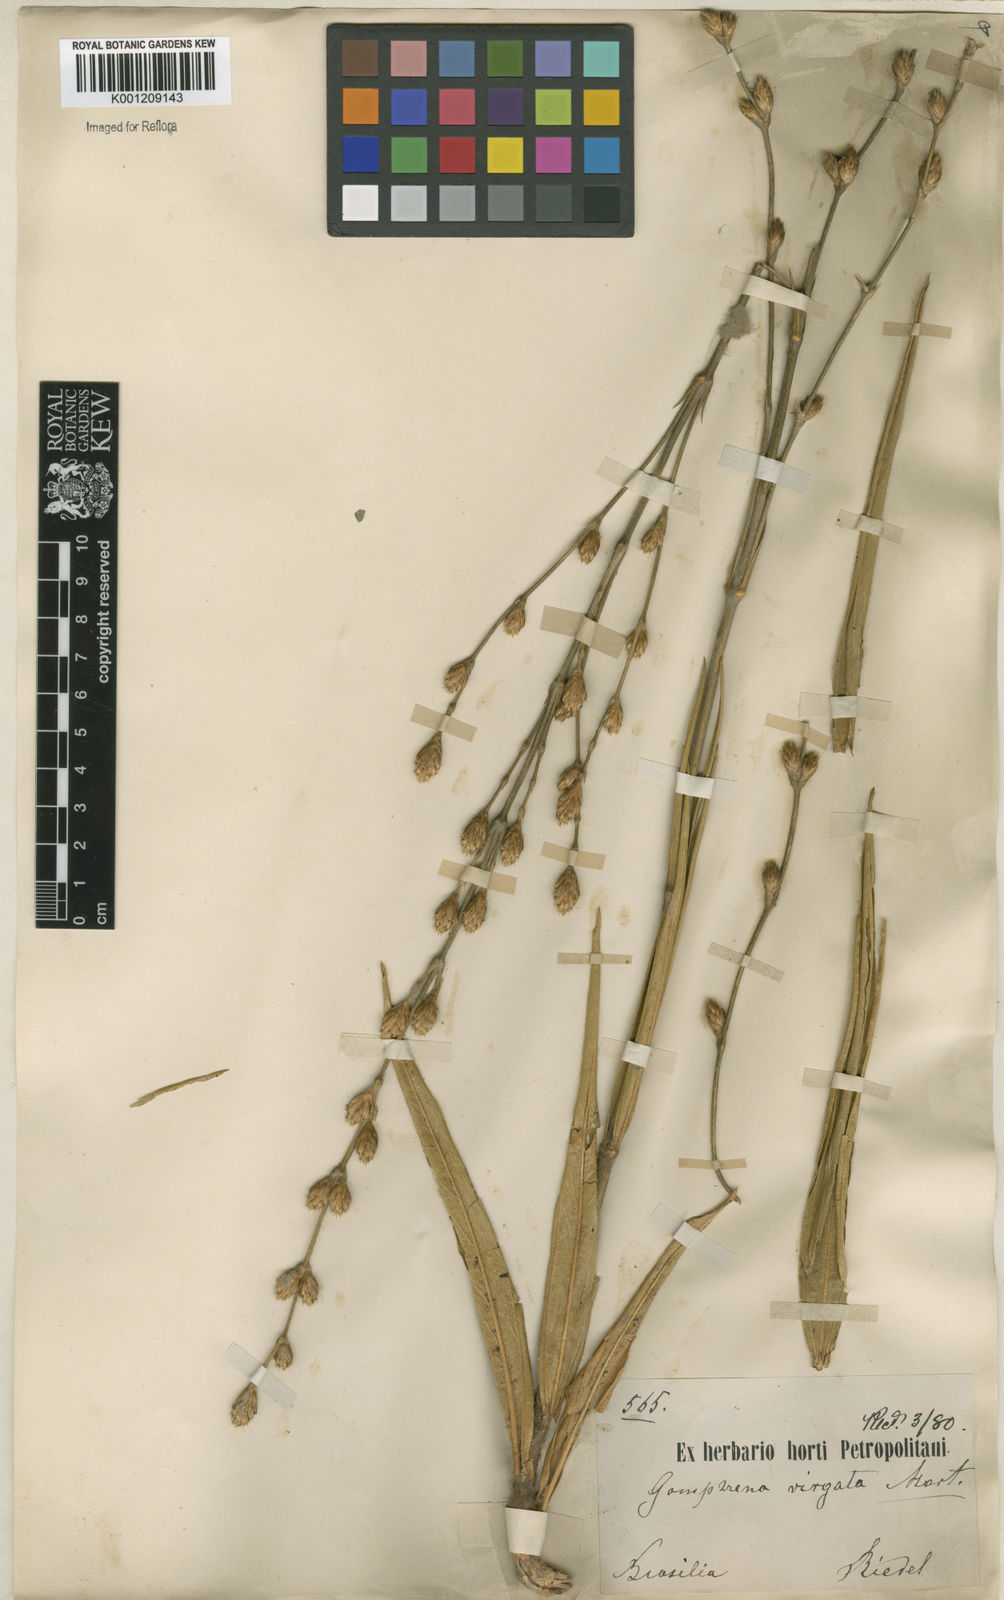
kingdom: Plantae
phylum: Tracheophyta
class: Magnoliopsida
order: Caryophyllales
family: Amaranthaceae
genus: Gomphrena
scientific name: Gomphrena virgata
